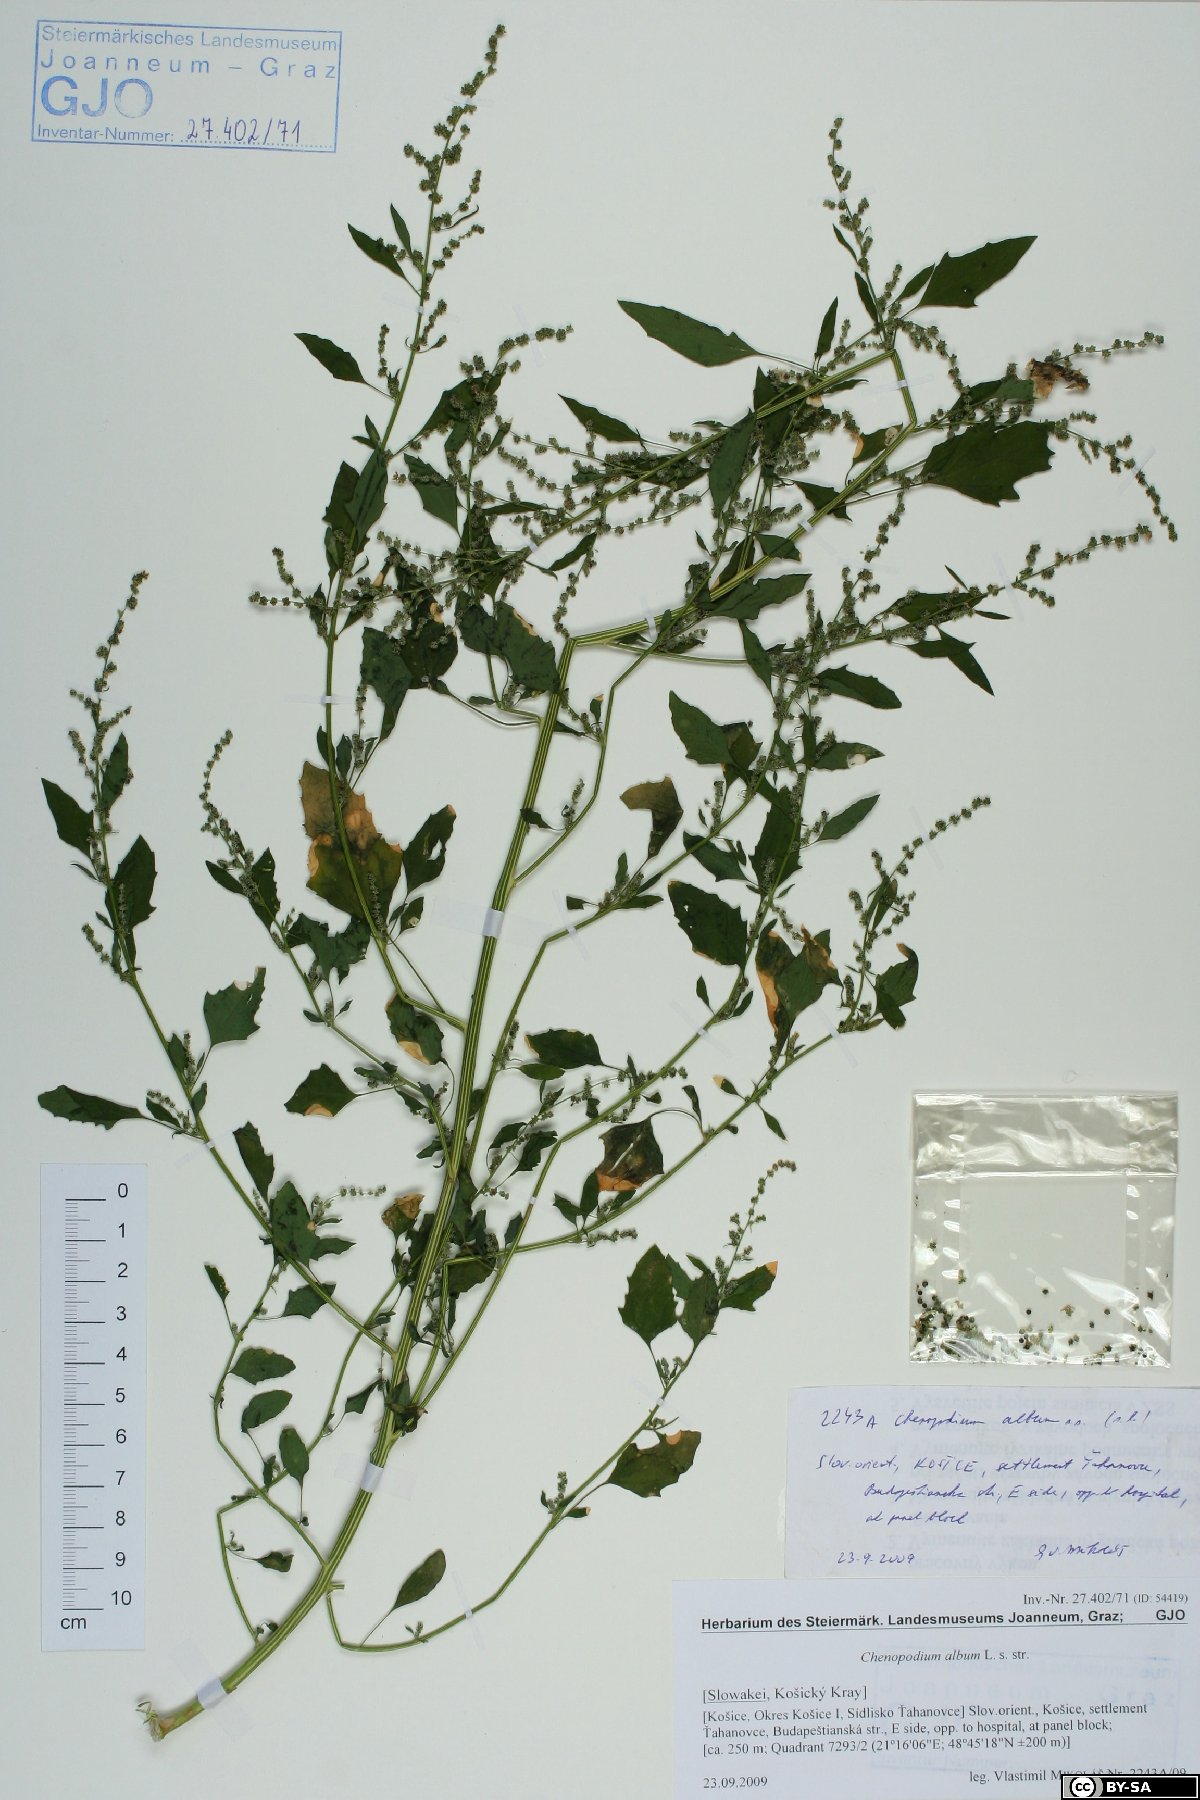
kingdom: Plantae
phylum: Tracheophyta
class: Magnoliopsida
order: Caryophyllales
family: Amaranthaceae
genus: Chenopodium
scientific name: Chenopodium album
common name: Fat-hen
